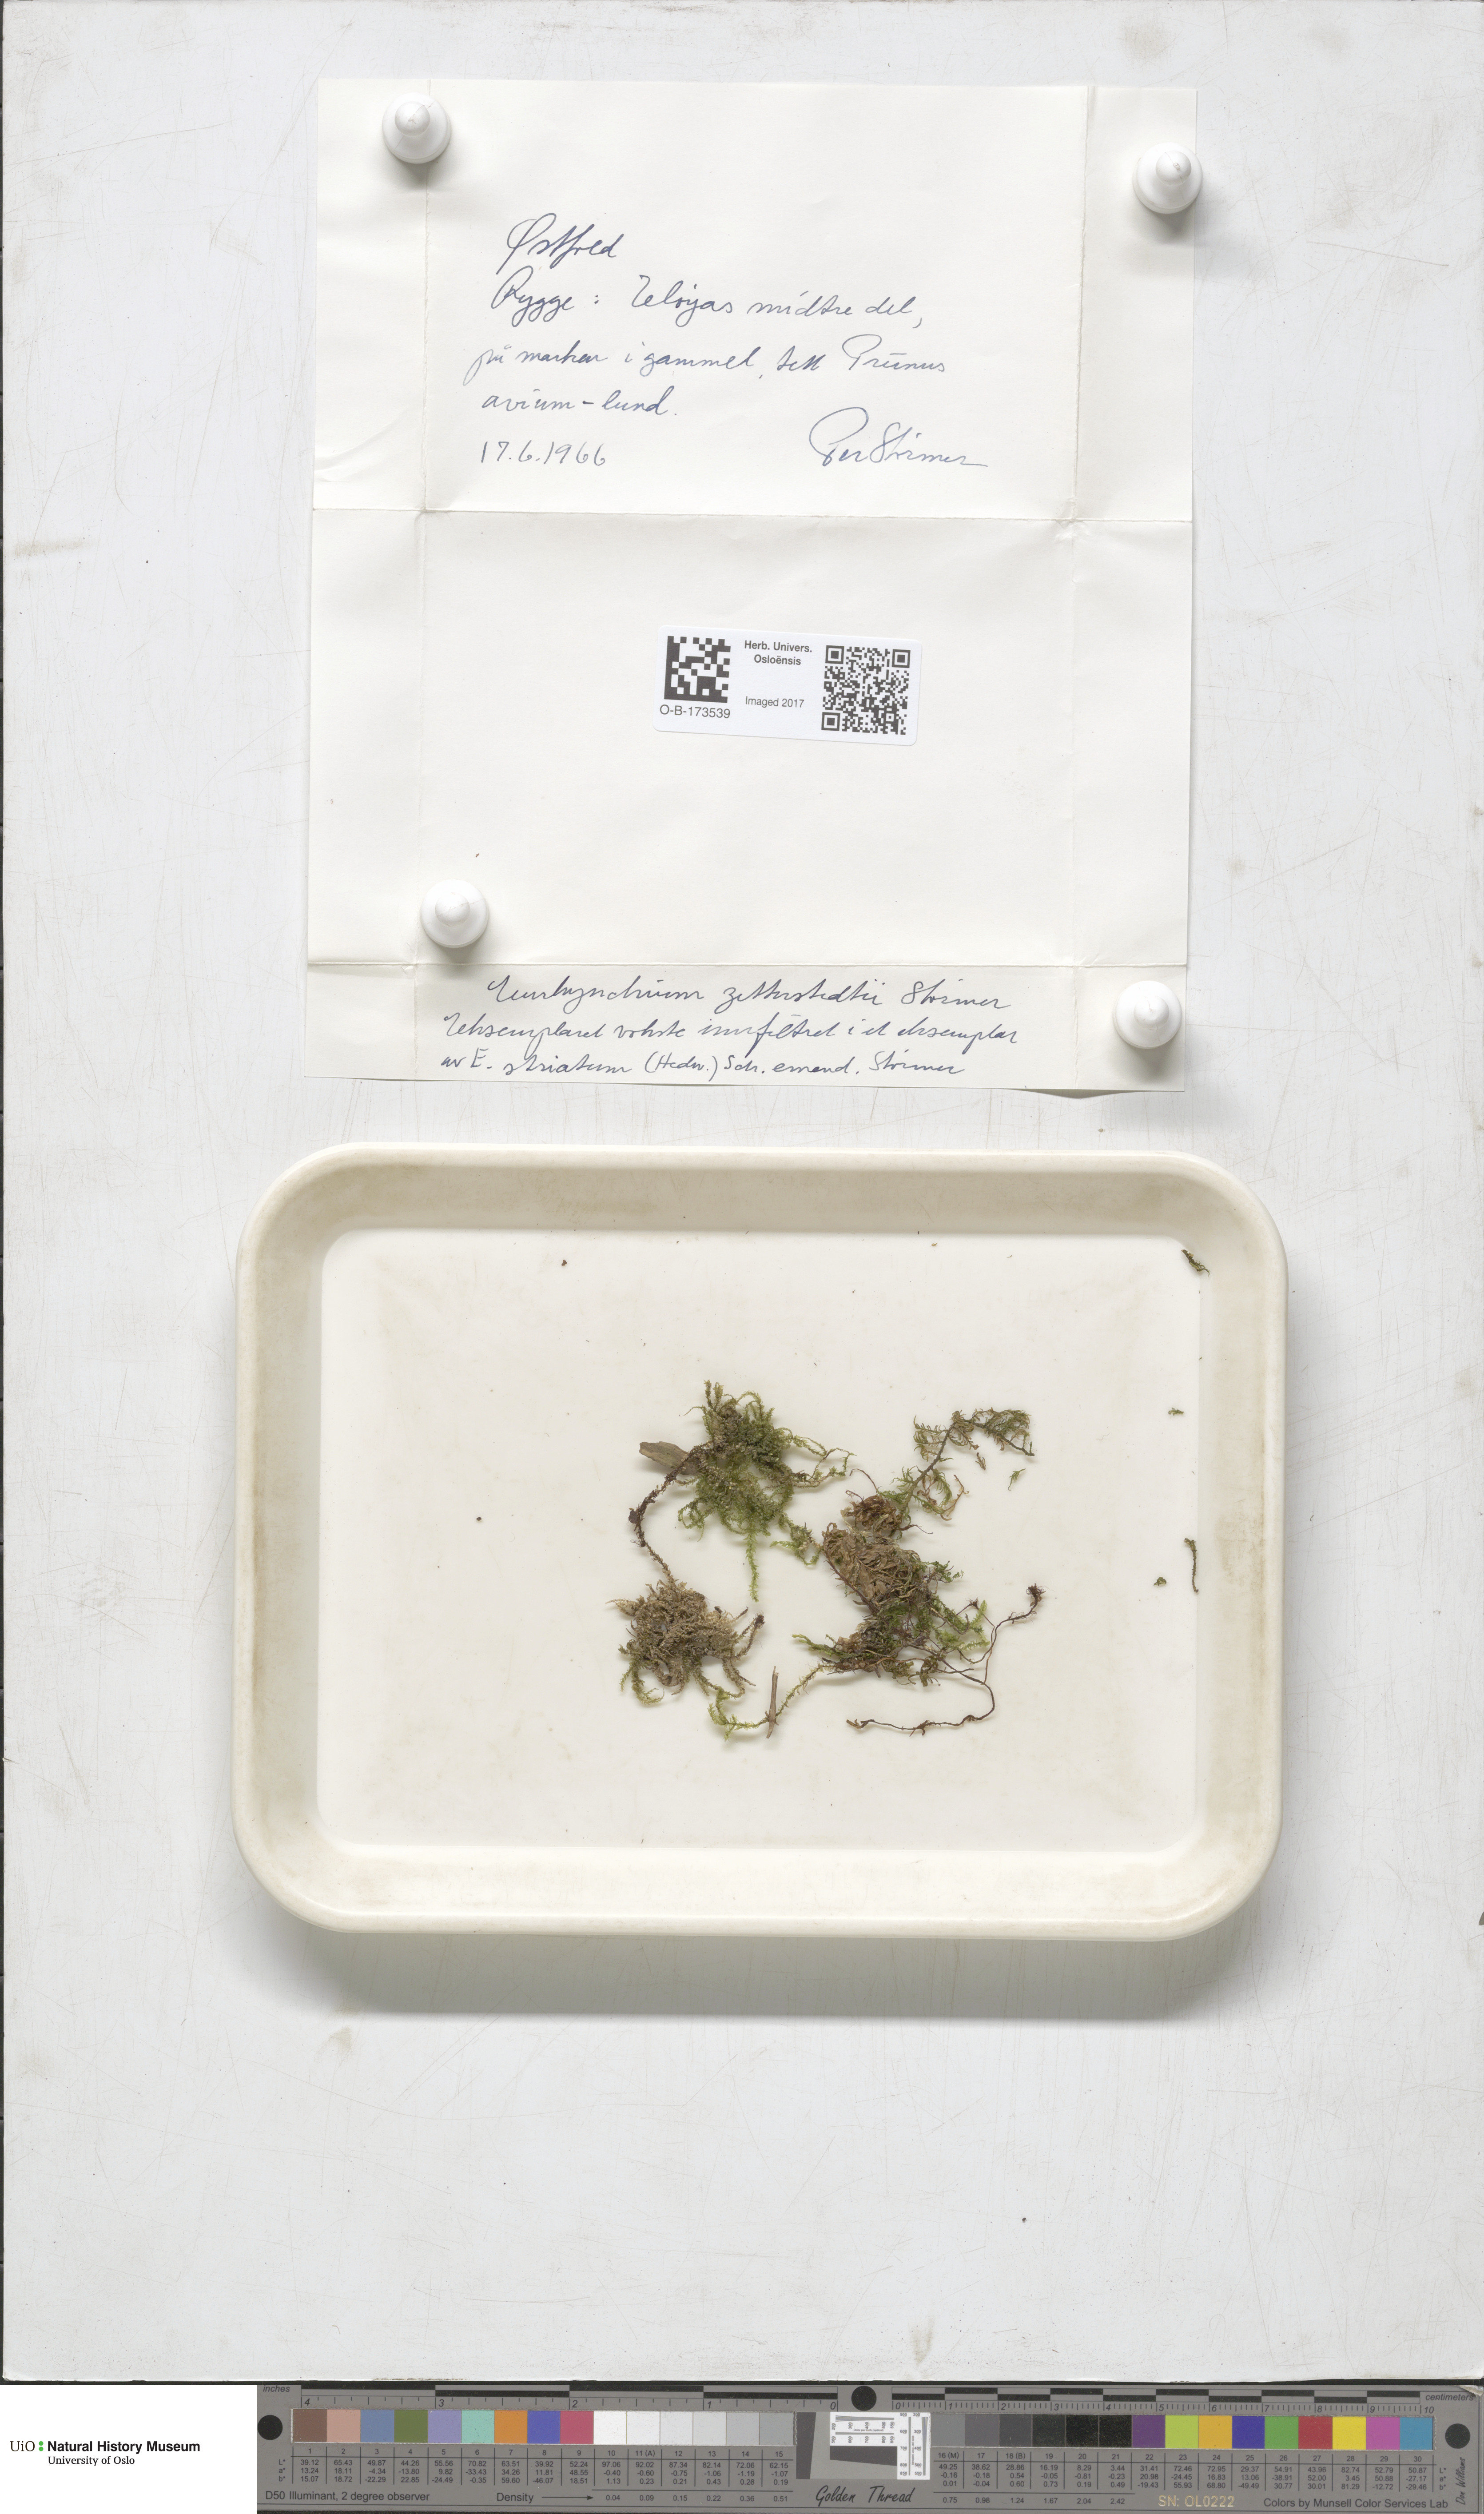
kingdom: Plantae
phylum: Bryophyta
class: Bryopsida
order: Hypnales
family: Brachytheciaceae
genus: Eurhynchium
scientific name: Eurhynchium angustirete
